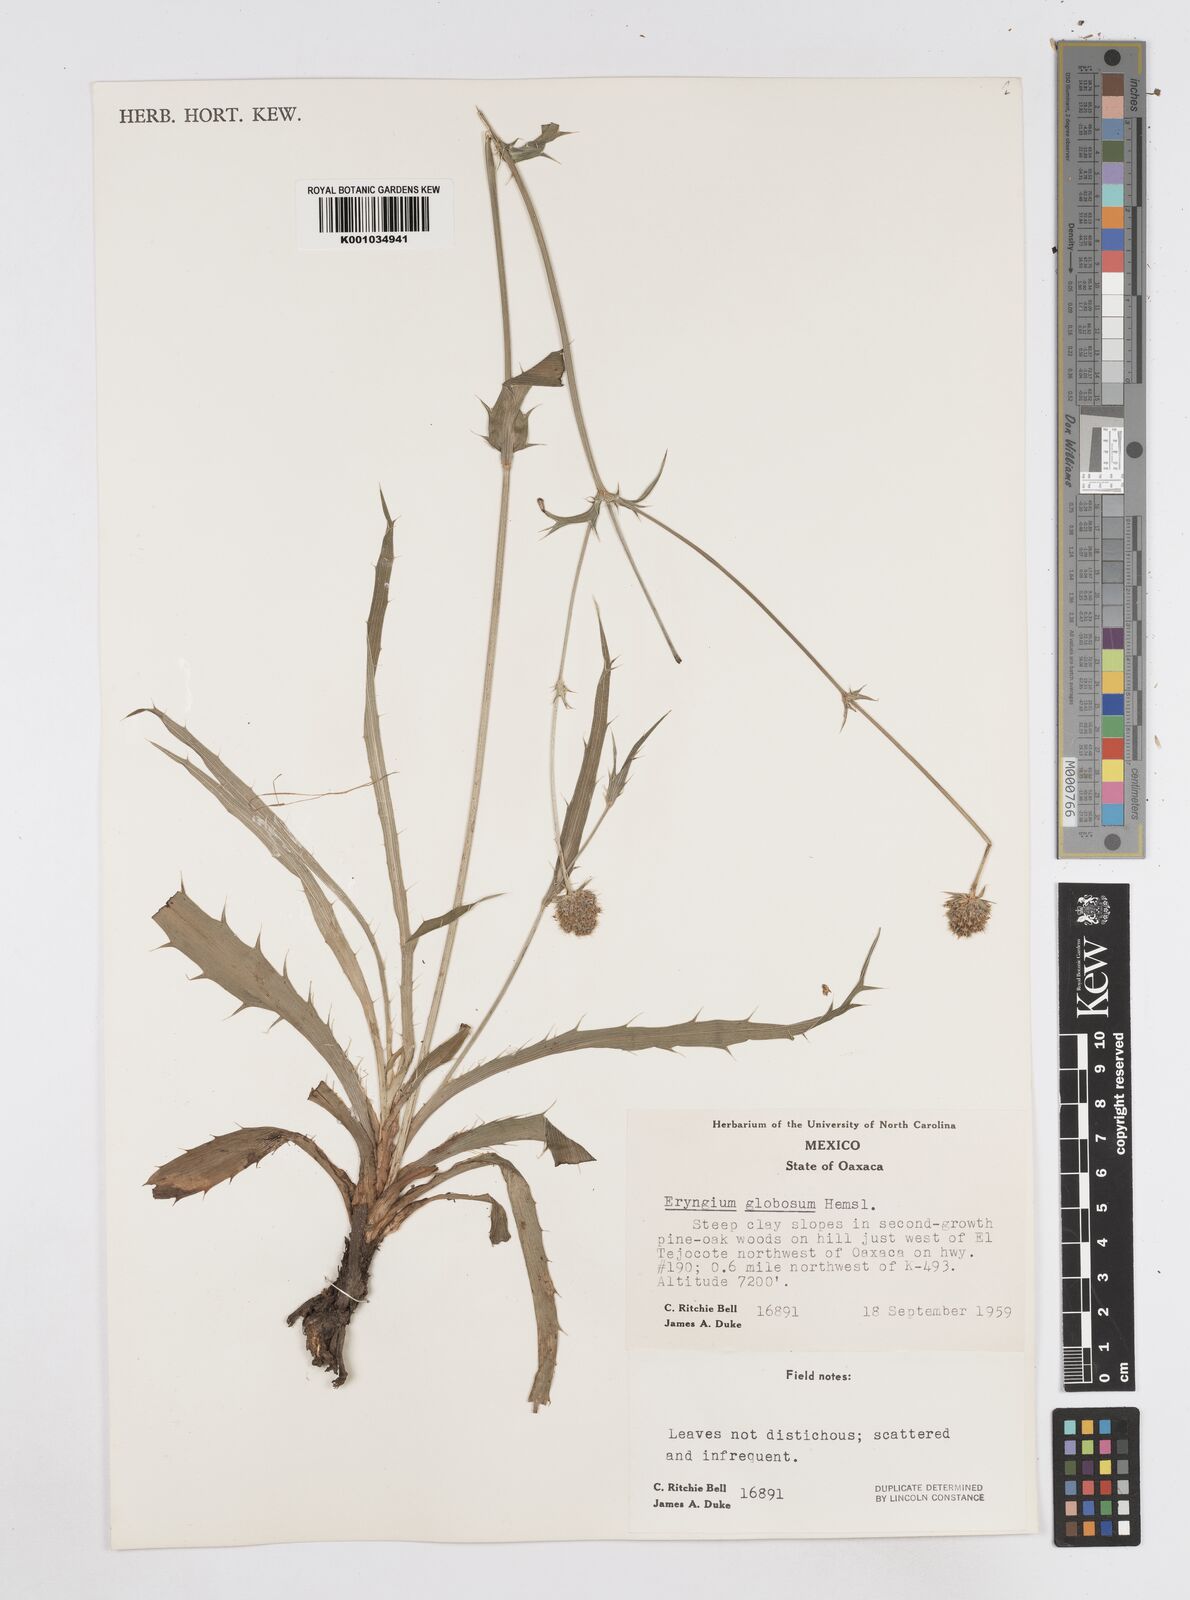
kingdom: Plantae
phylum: Tracheophyta
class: Magnoliopsida
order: Apiales
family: Apiaceae
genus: Eryngium
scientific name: Eryngium palmeri
